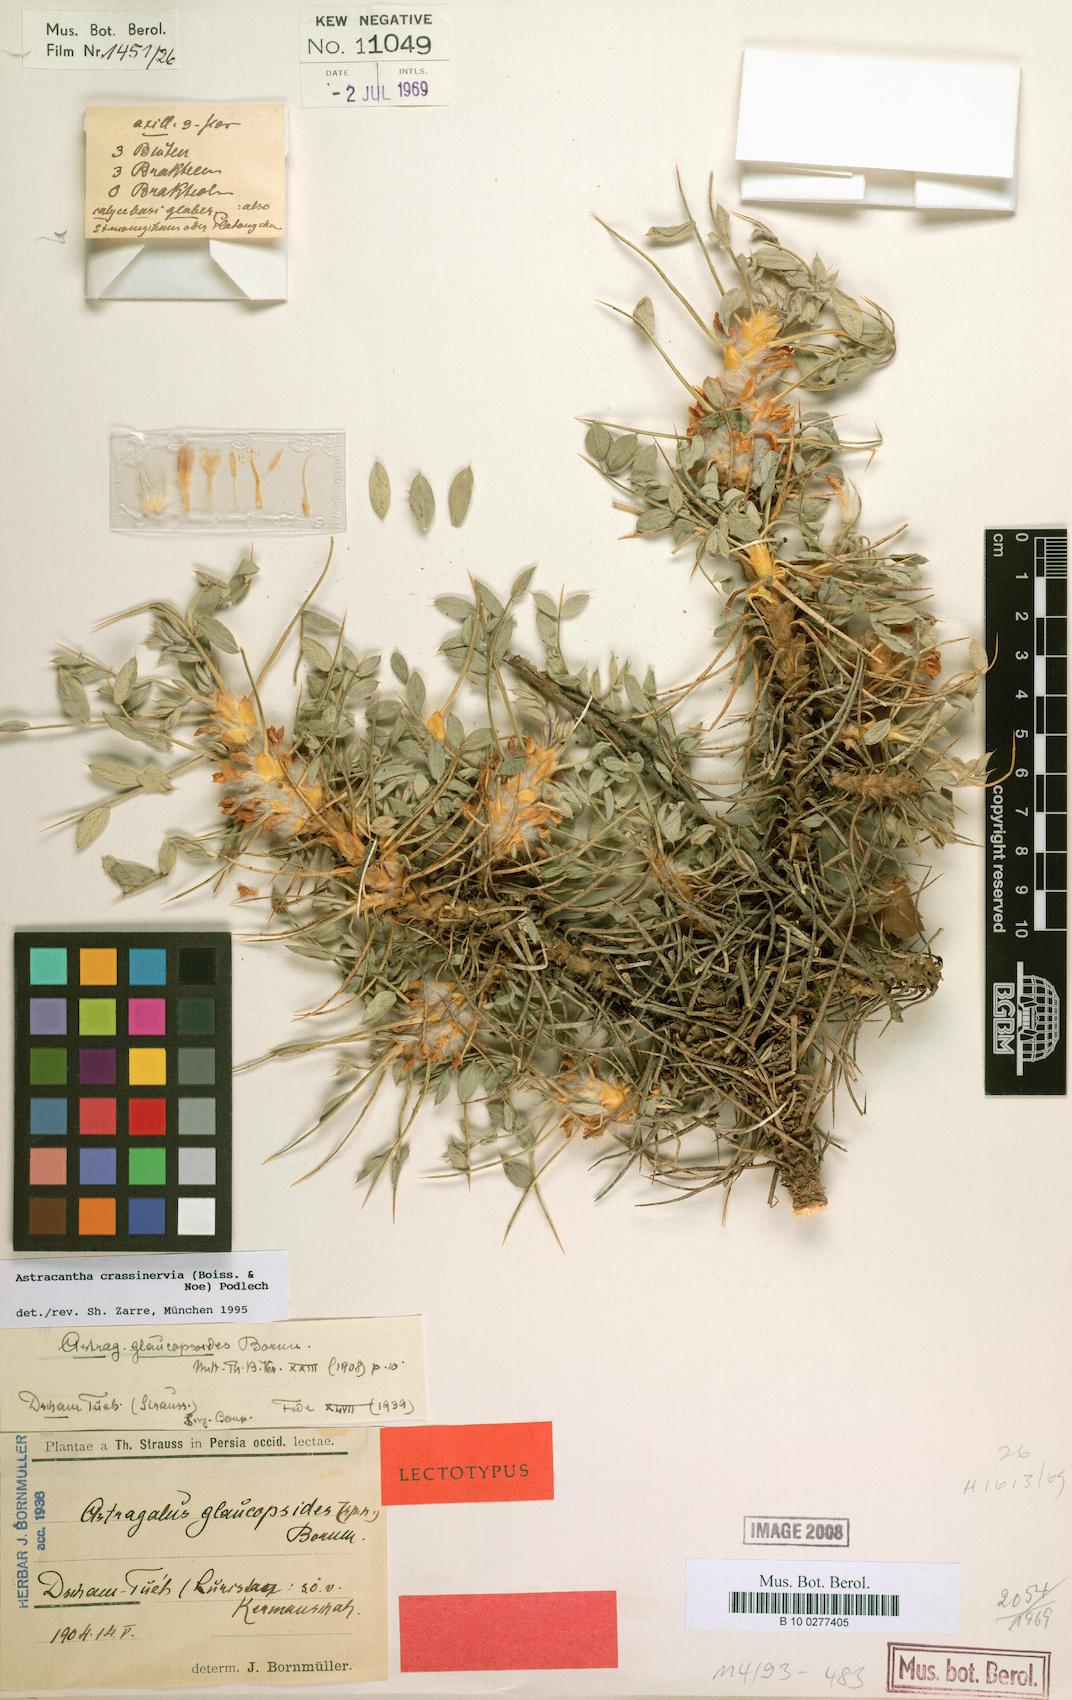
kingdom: Plantae
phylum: Tracheophyta
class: Magnoliopsida
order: Fabales
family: Fabaceae
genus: Astragalus
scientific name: Astragalus crassinervius
